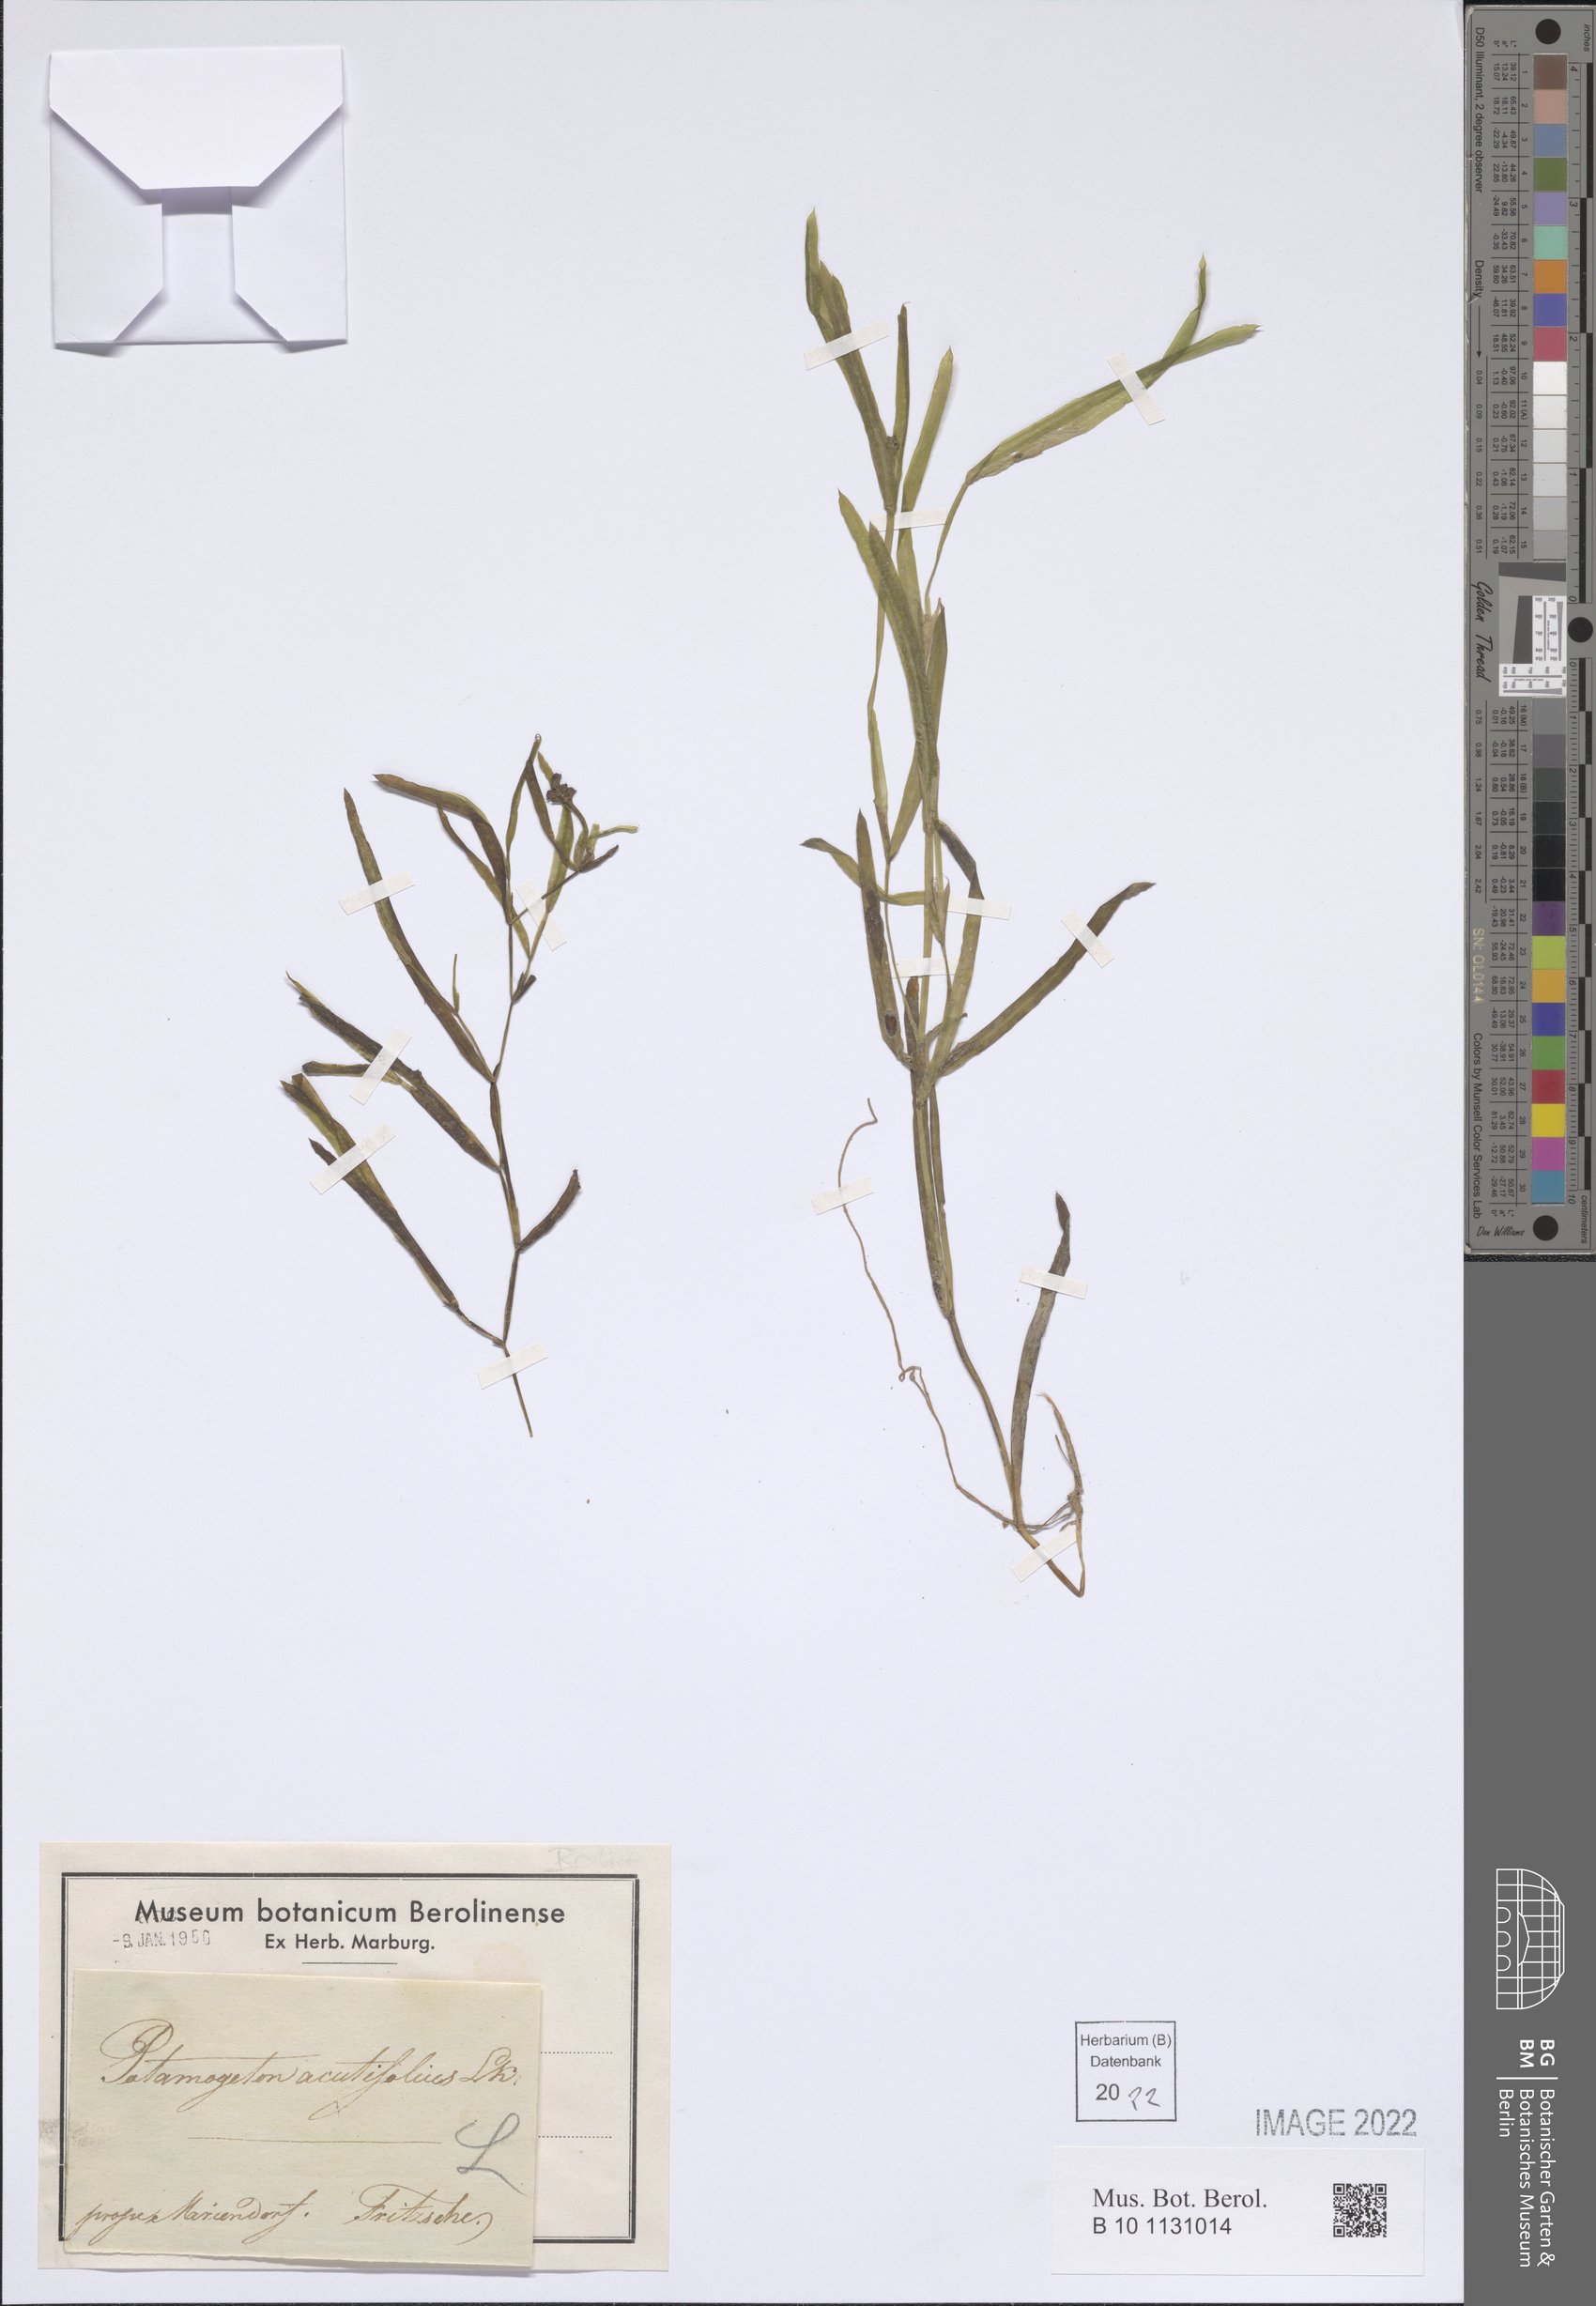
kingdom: Plantae
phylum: Tracheophyta
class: Liliopsida
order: Alismatales
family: Potamogetonaceae
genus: Potamogeton
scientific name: Potamogeton acutifolius
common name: Sharp-leaved pondweed
